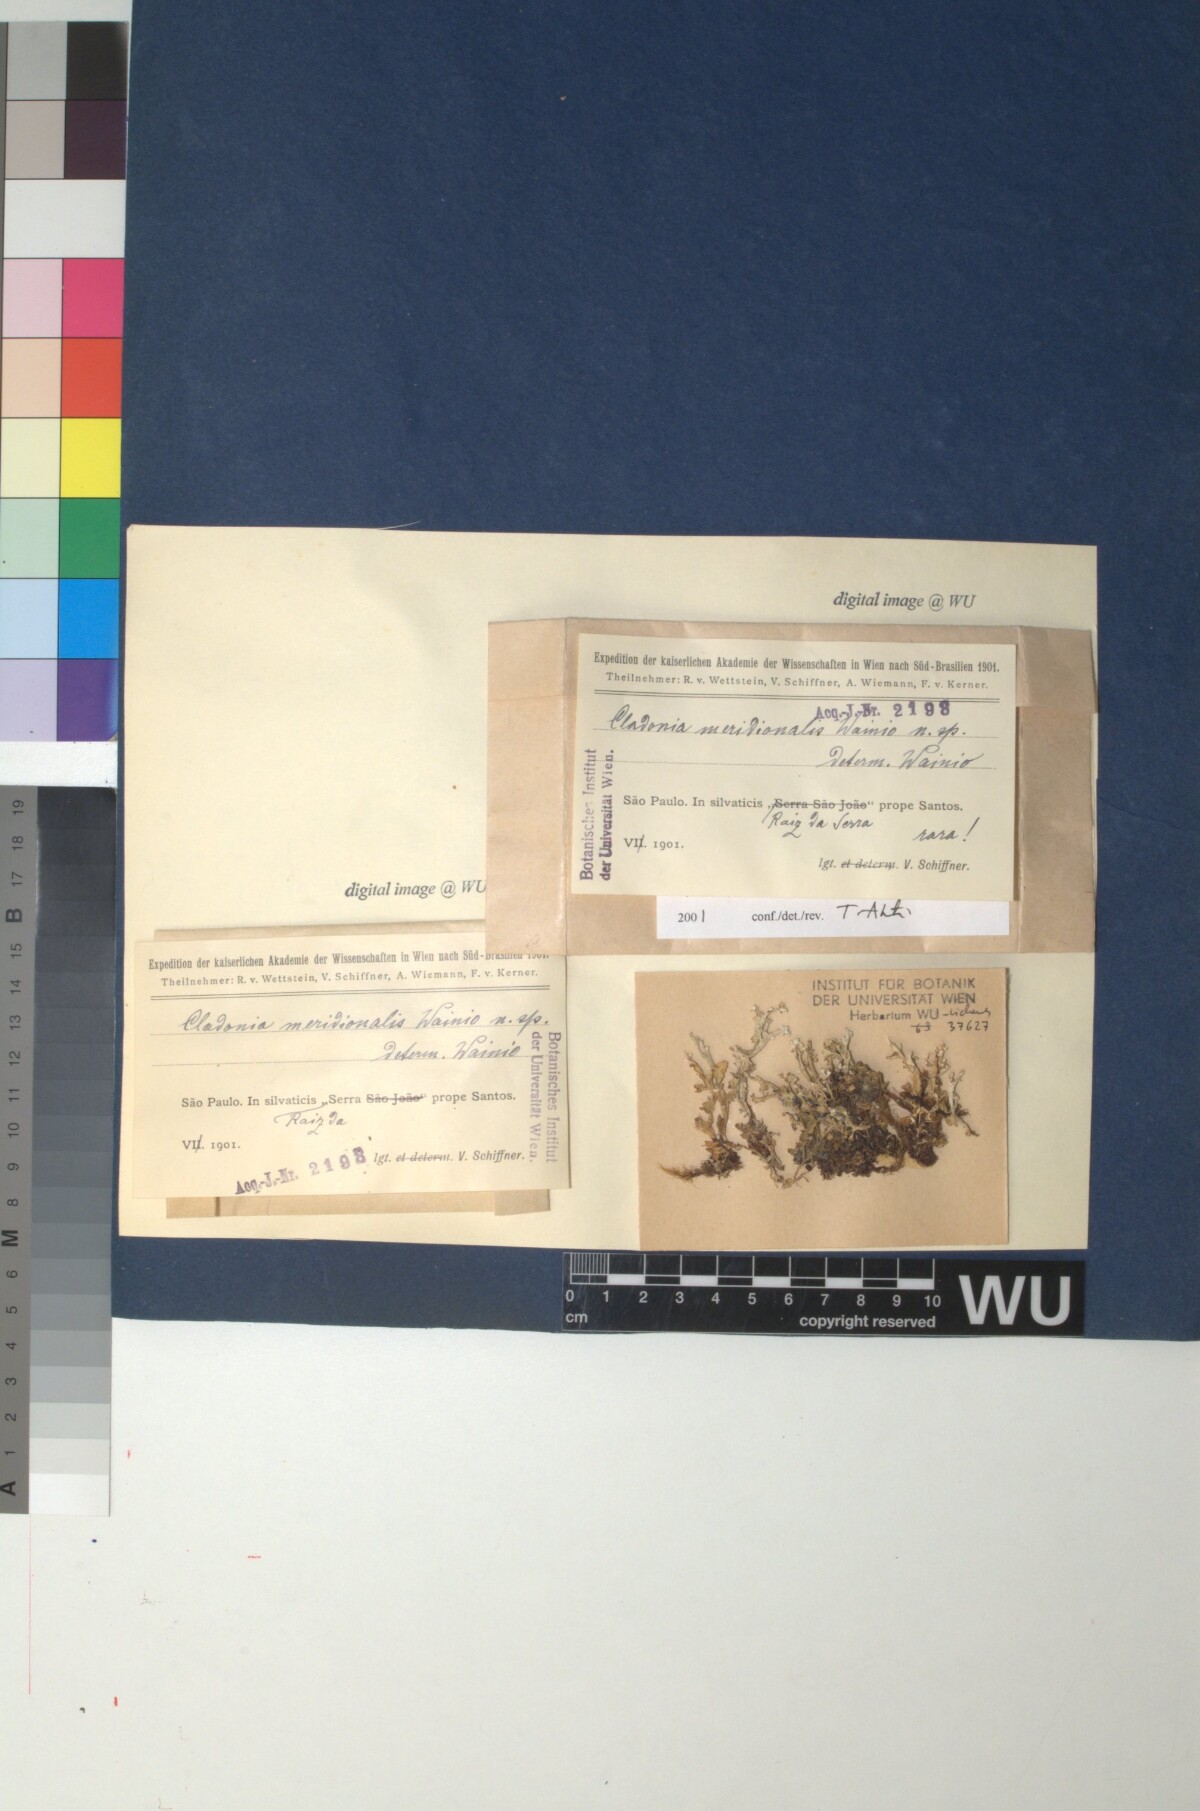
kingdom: Fungi
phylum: Ascomycota
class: Lecanoromycetes
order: Lecanorales
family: Cladoniaceae
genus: Cladonia
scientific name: Cladonia meridionalis
